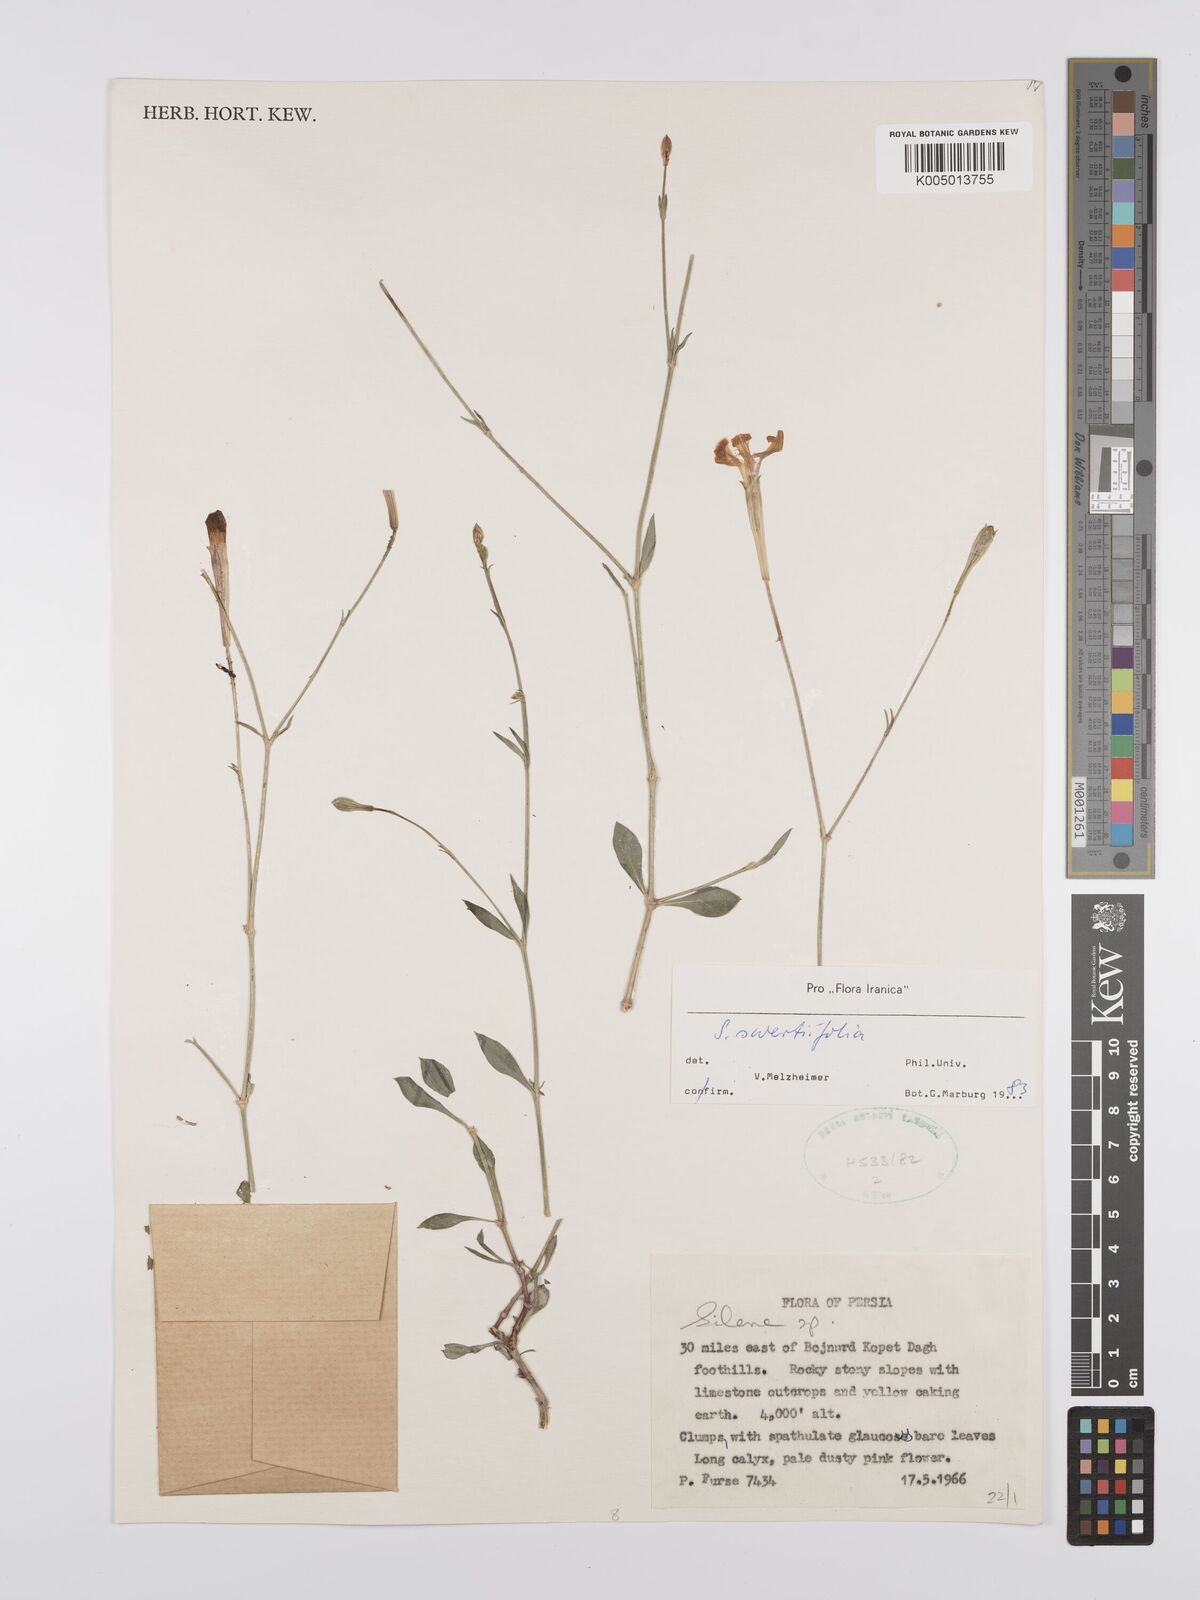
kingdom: Plantae
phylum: Tracheophyta
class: Magnoliopsida
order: Caryophyllales
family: Caryophyllaceae
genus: Silene
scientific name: Silene swertiifolia
